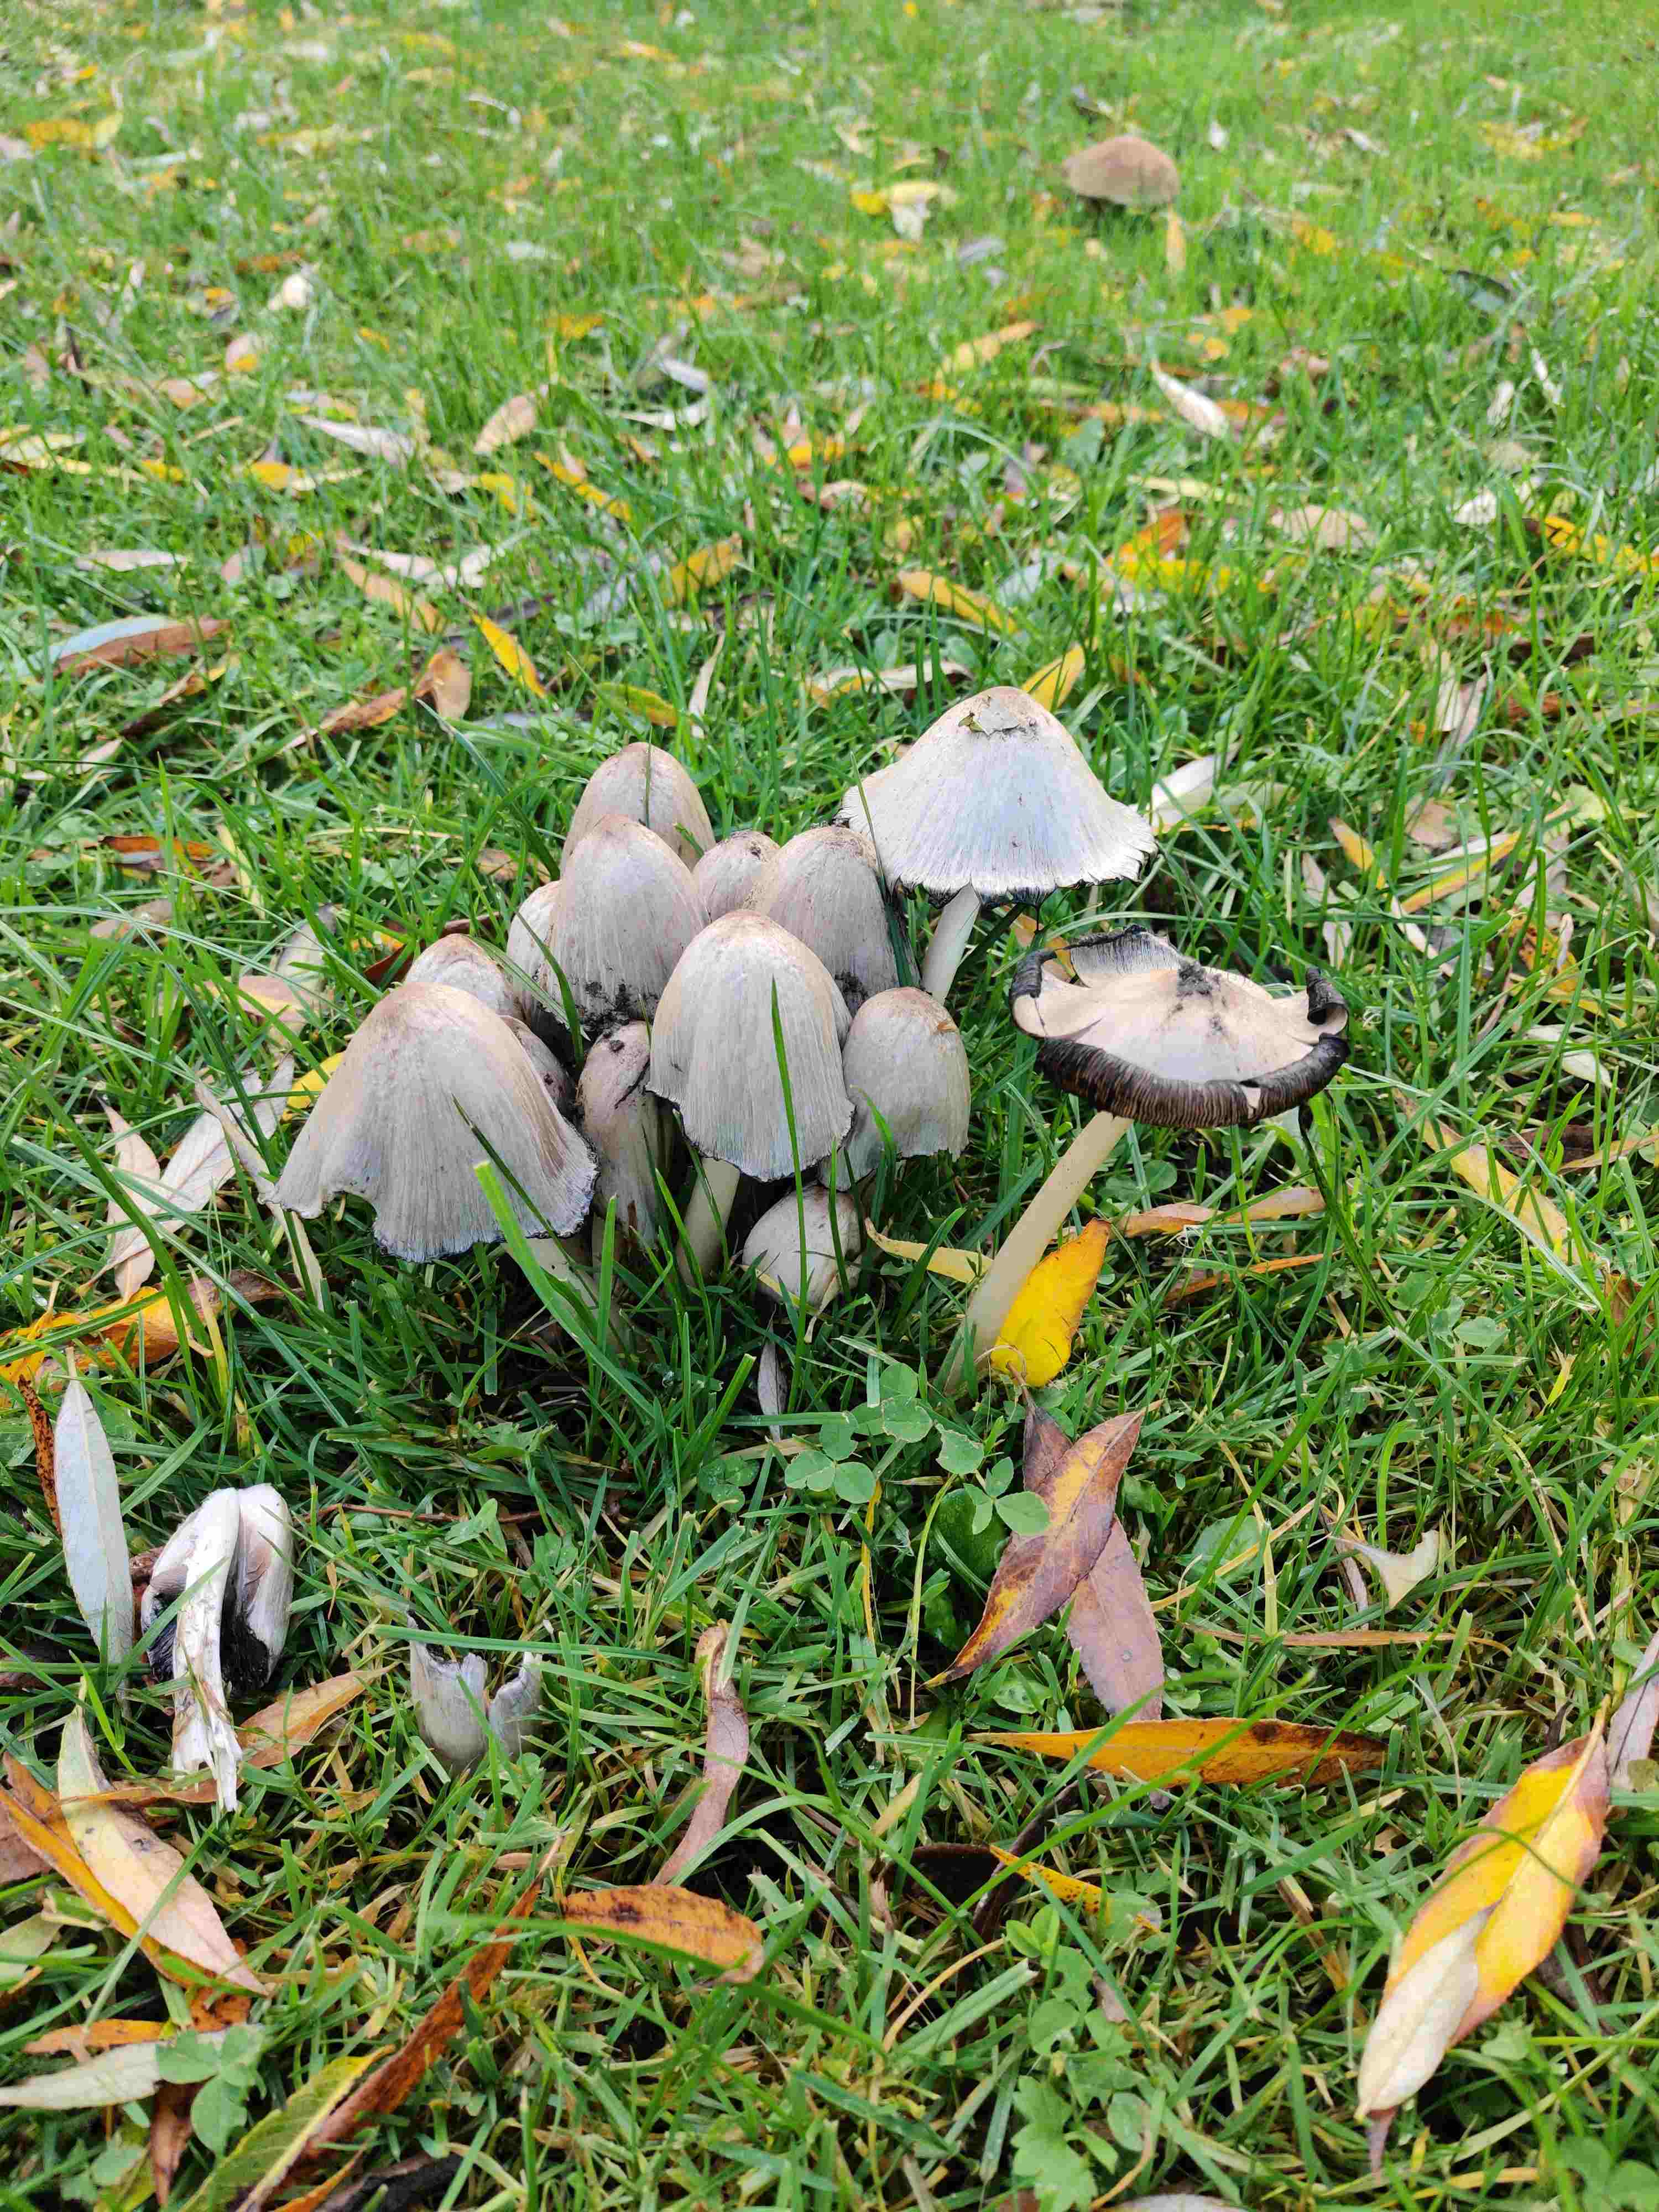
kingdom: Fungi
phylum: Basidiomycota
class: Agaricomycetes
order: Agaricales
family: Psathyrellaceae
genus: Coprinopsis
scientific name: Coprinopsis atramentaria
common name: almindelig blækhat
